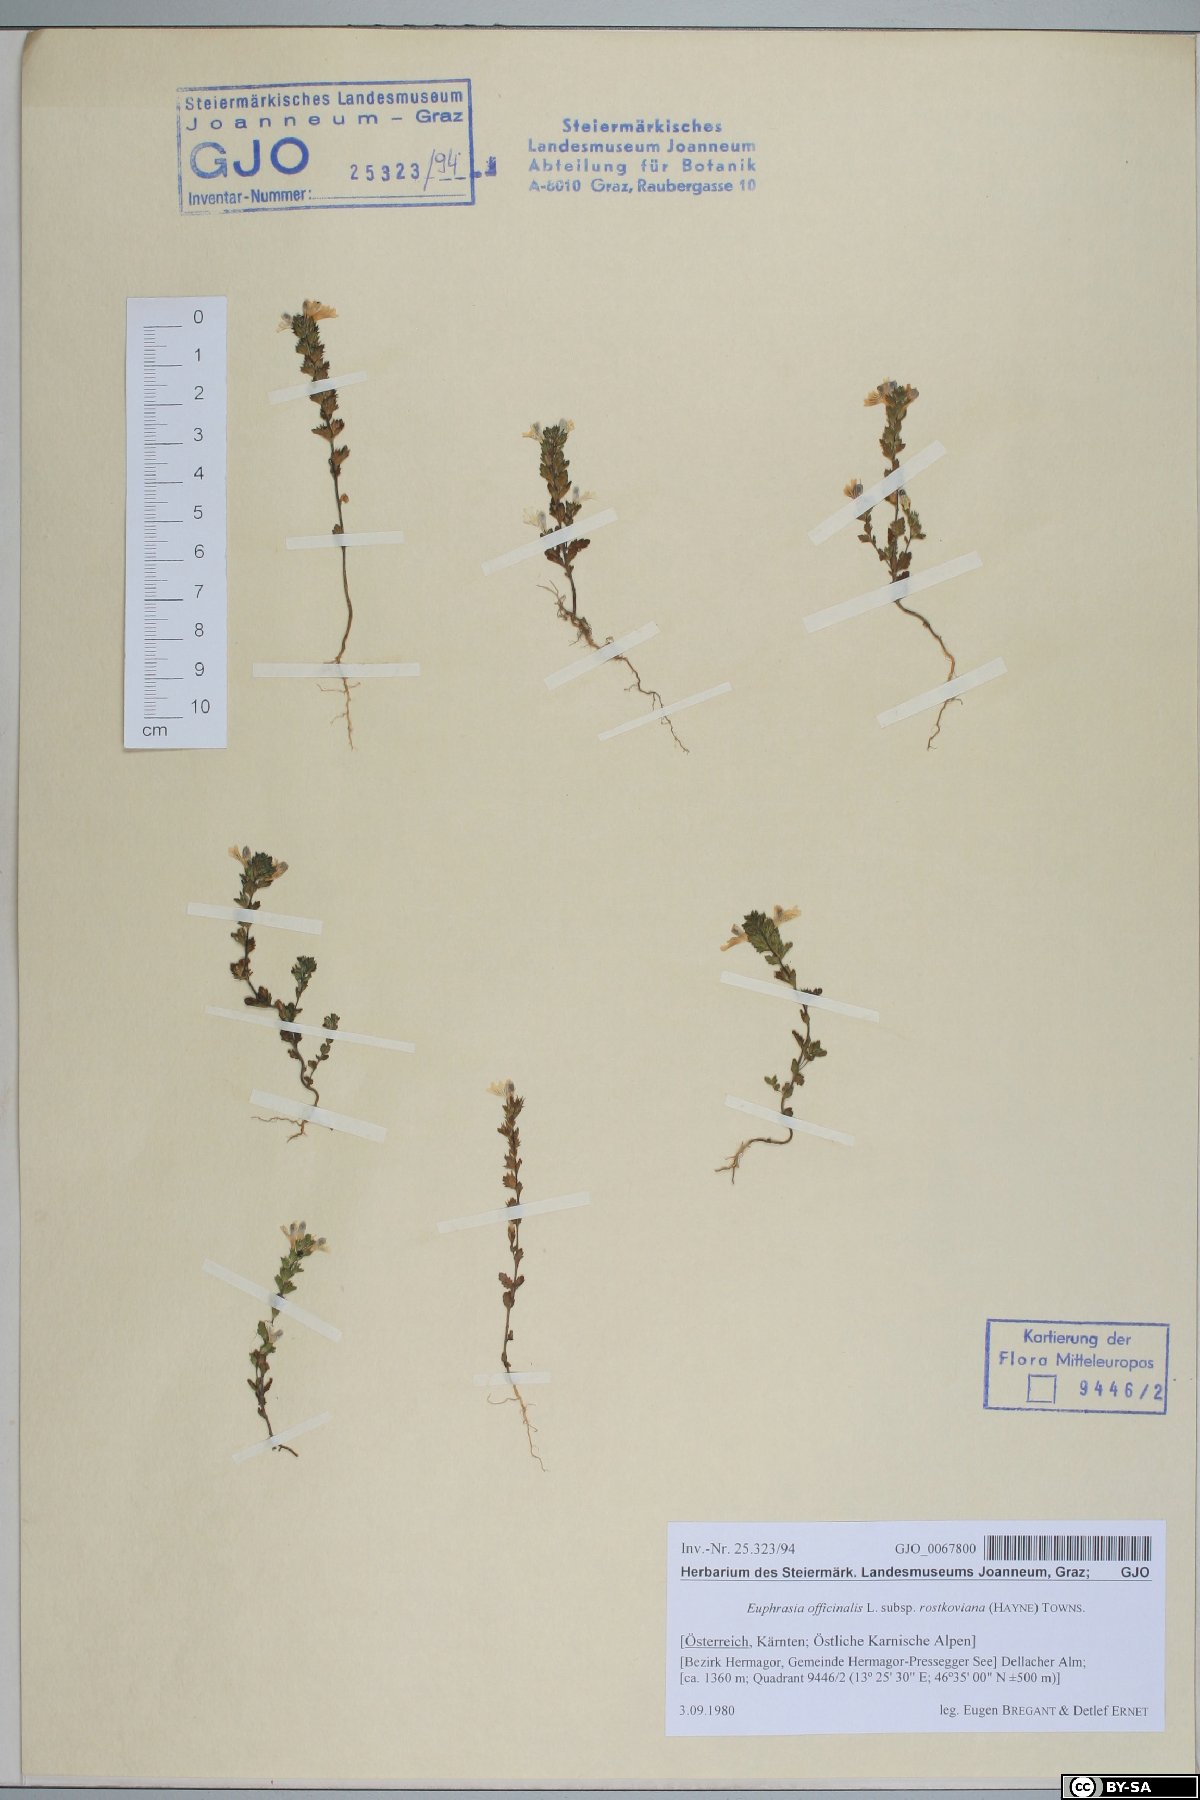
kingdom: Plantae
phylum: Tracheophyta
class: Magnoliopsida
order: Lamiales
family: Orobanchaceae
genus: Euphrasia
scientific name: Euphrasia officinalis
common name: Eyebright
